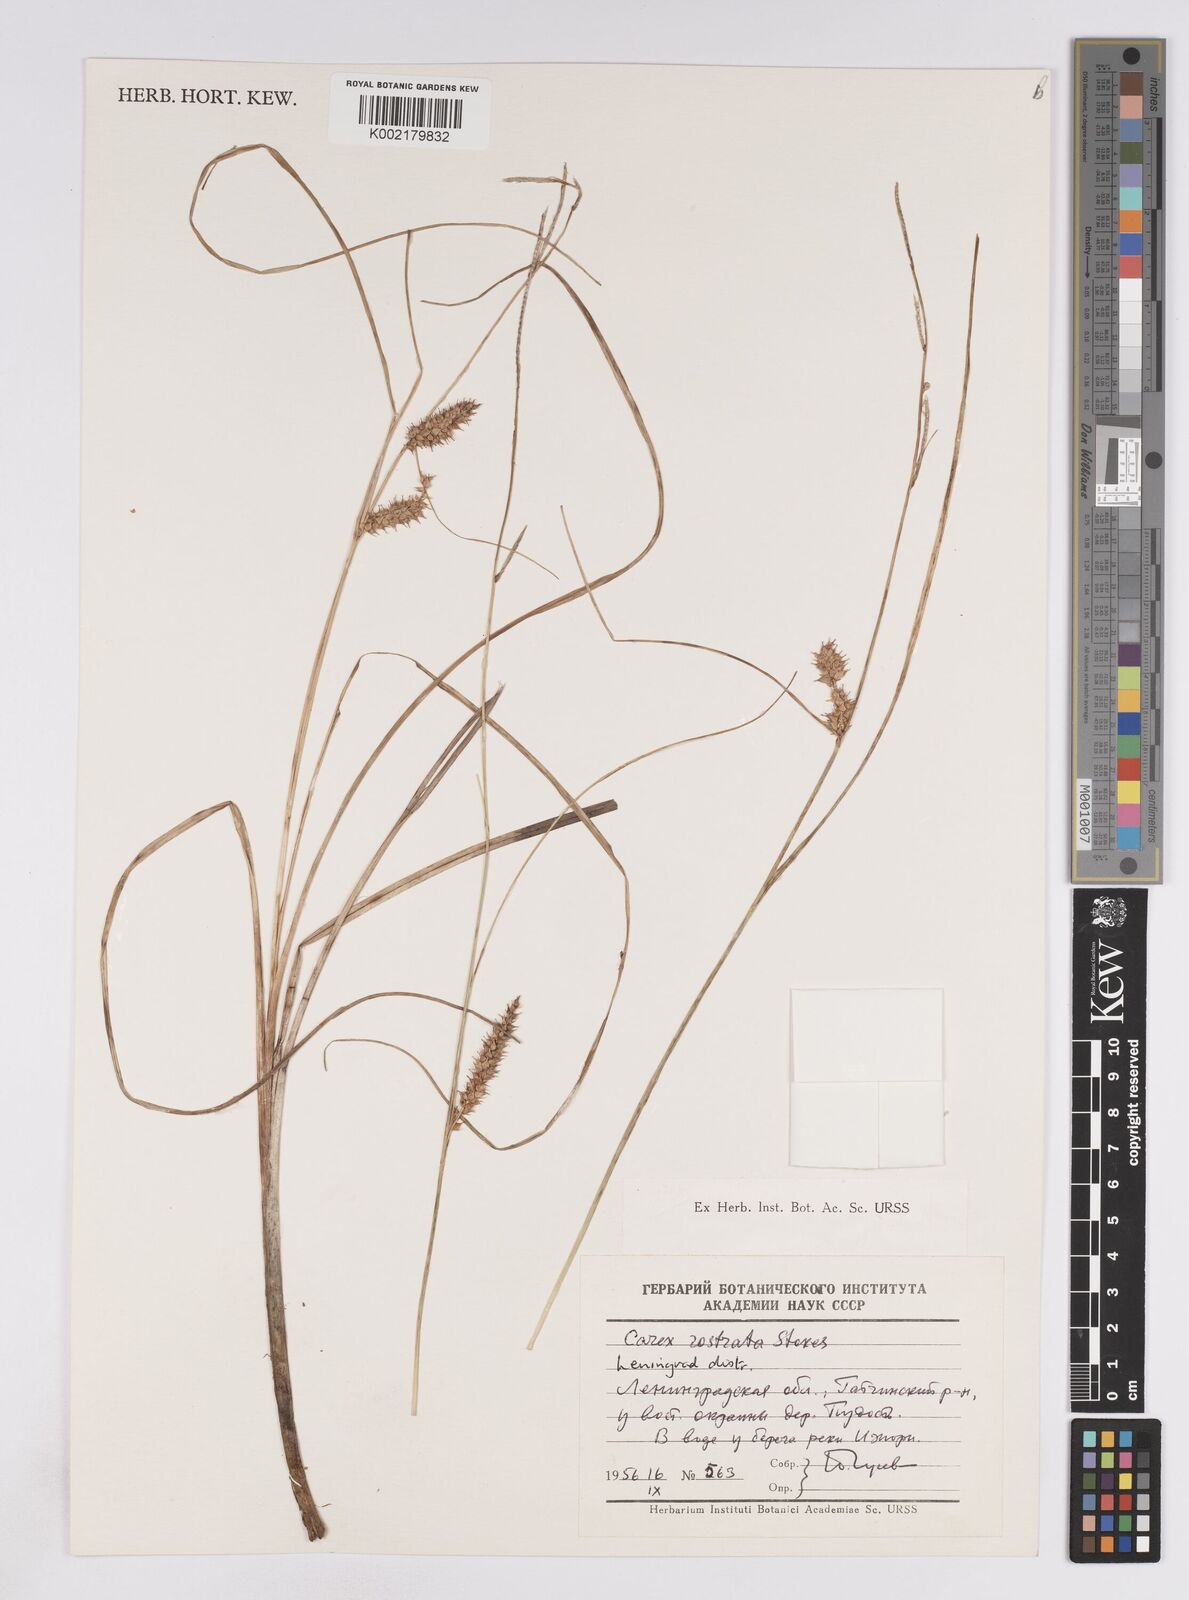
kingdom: Plantae
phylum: Tracheophyta
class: Liliopsida
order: Poales
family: Cyperaceae
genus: Carex
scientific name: Carex rostrata
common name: Bottle sedge
